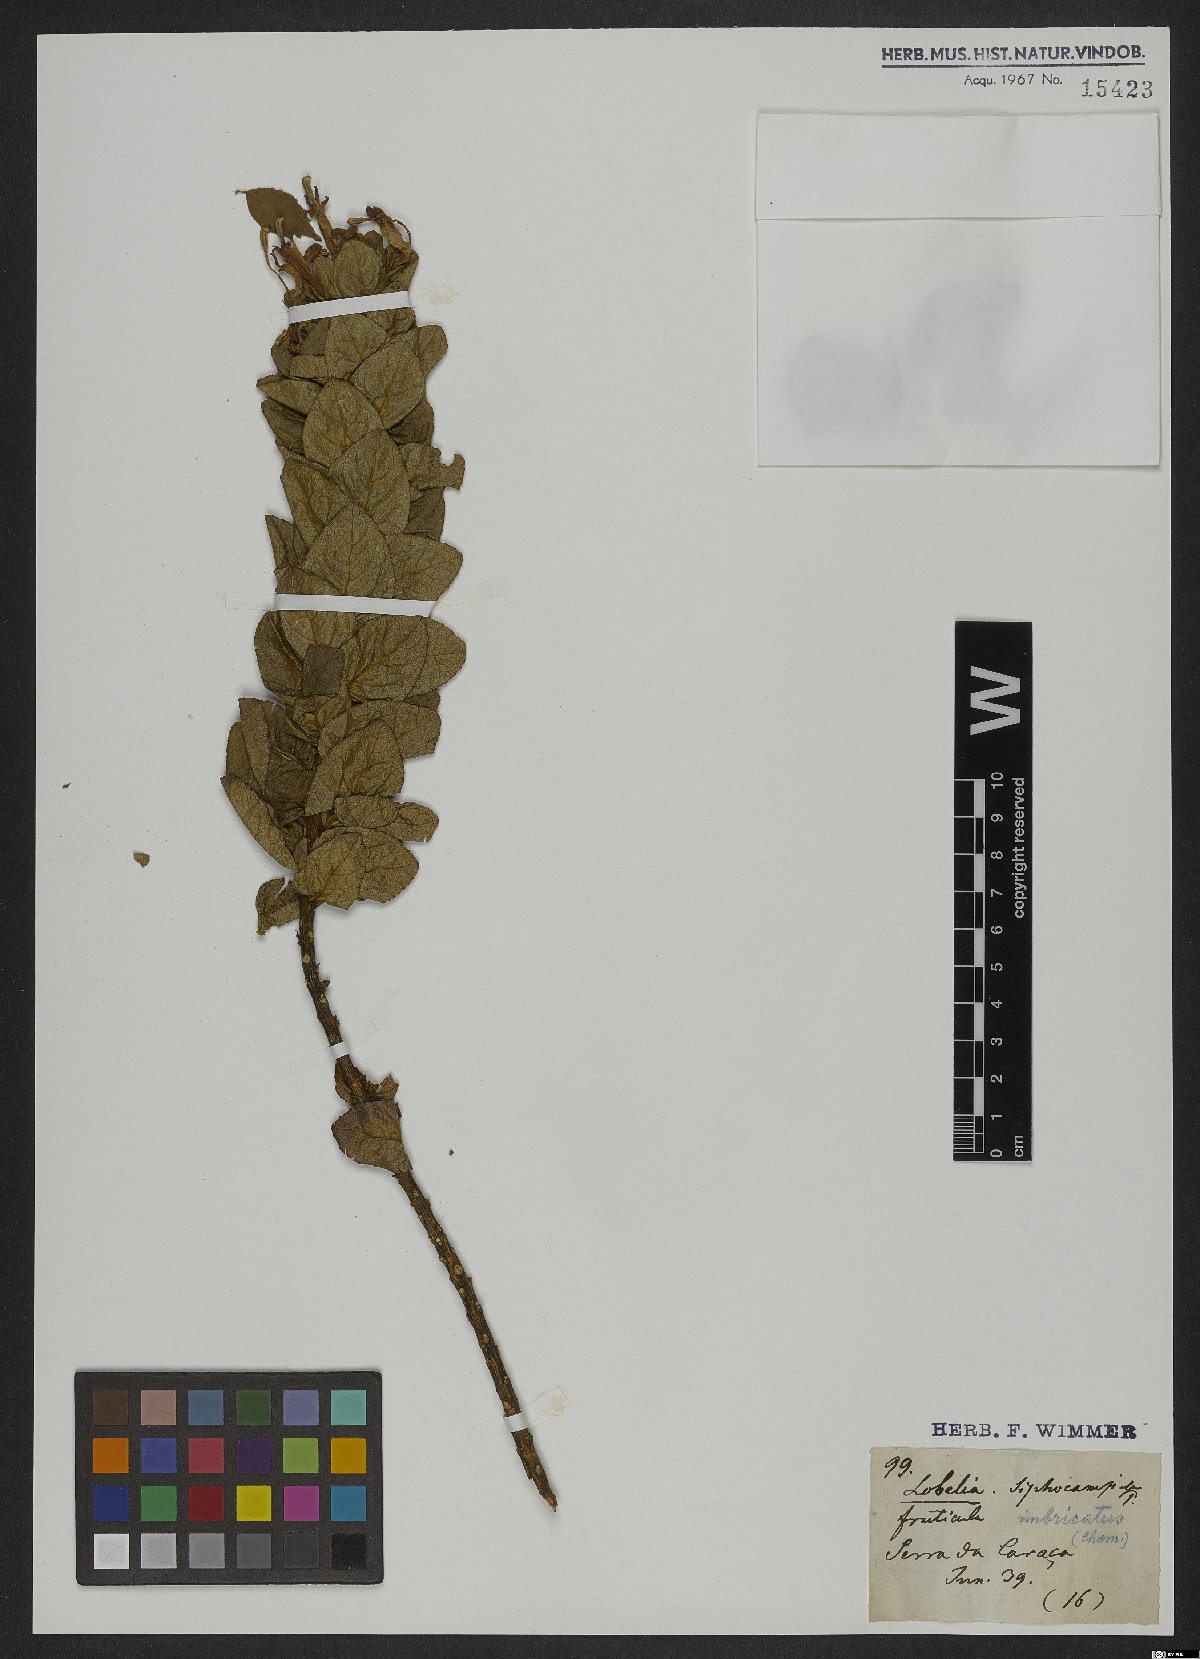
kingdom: Plantae
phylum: Tracheophyta
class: Magnoliopsida
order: Asterales
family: Campanulaceae
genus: Siphocampylus
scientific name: Siphocampylus imbricatus
